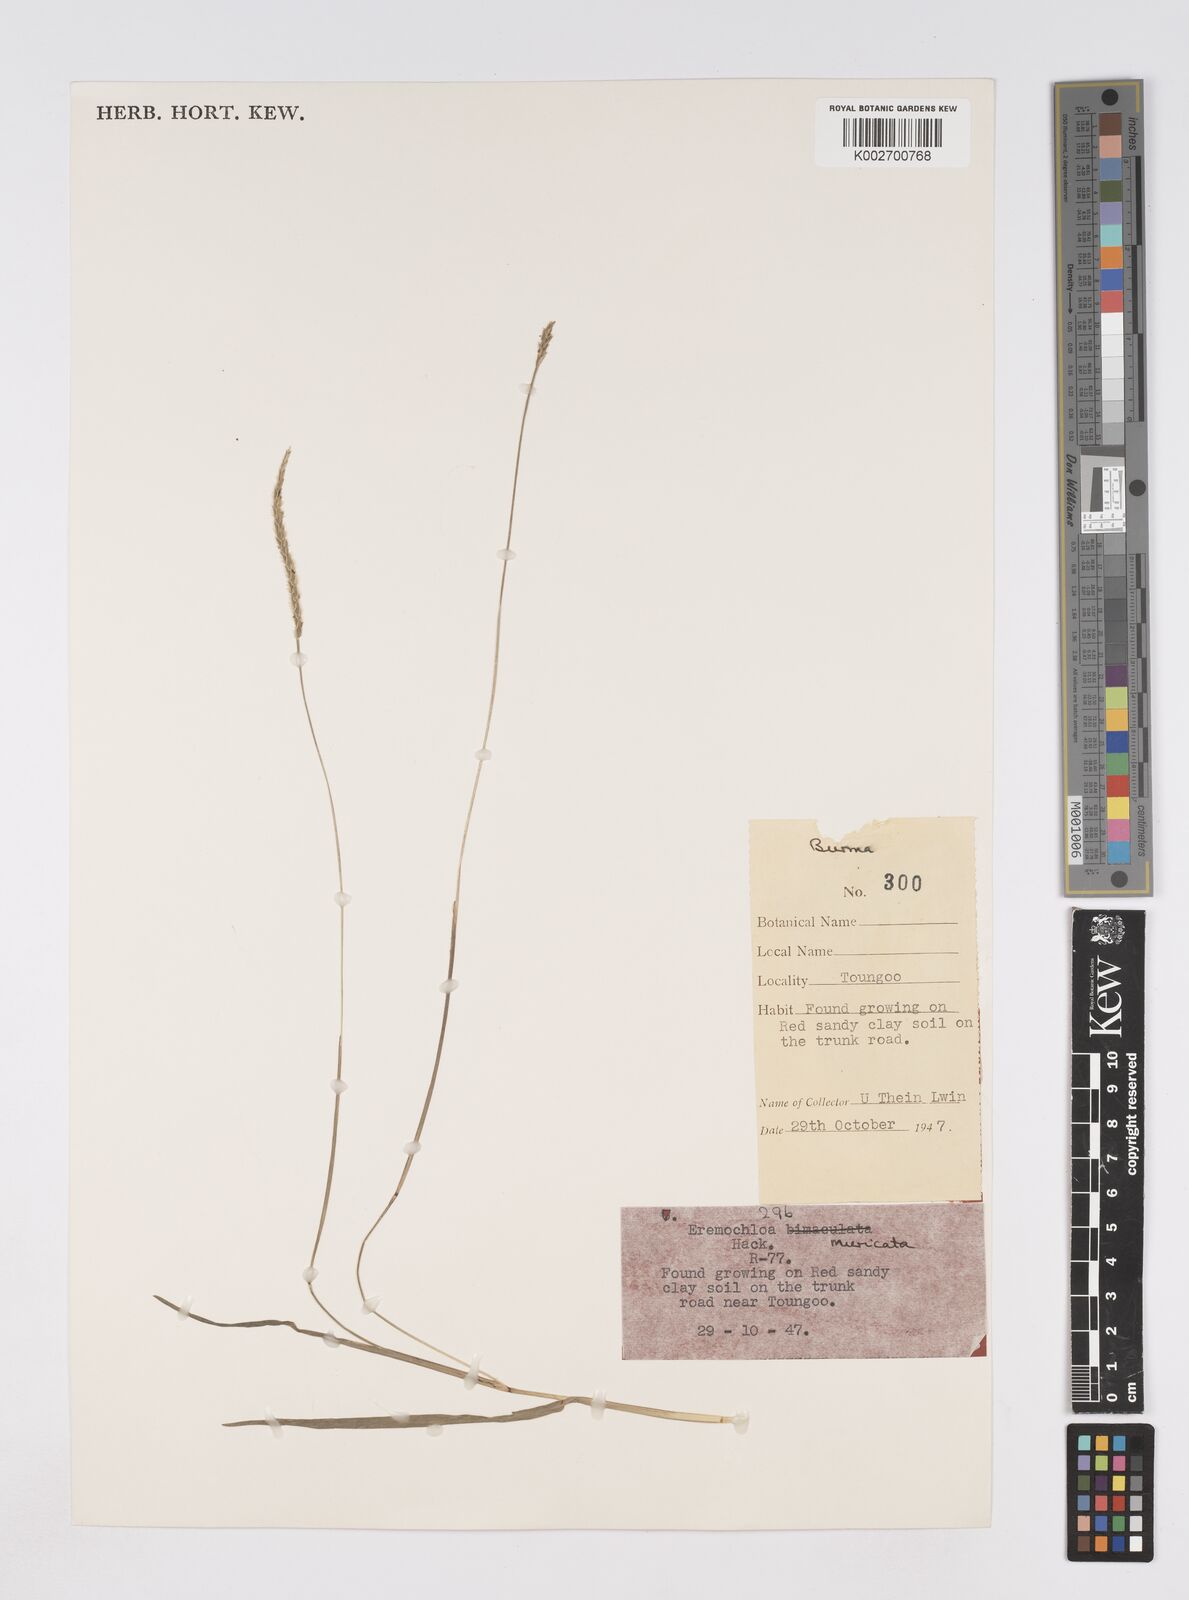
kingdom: Plantae
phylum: Tracheophyta
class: Liliopsida
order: Poales
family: Poaceae
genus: Eremochloa
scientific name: Eremochloa muricata
